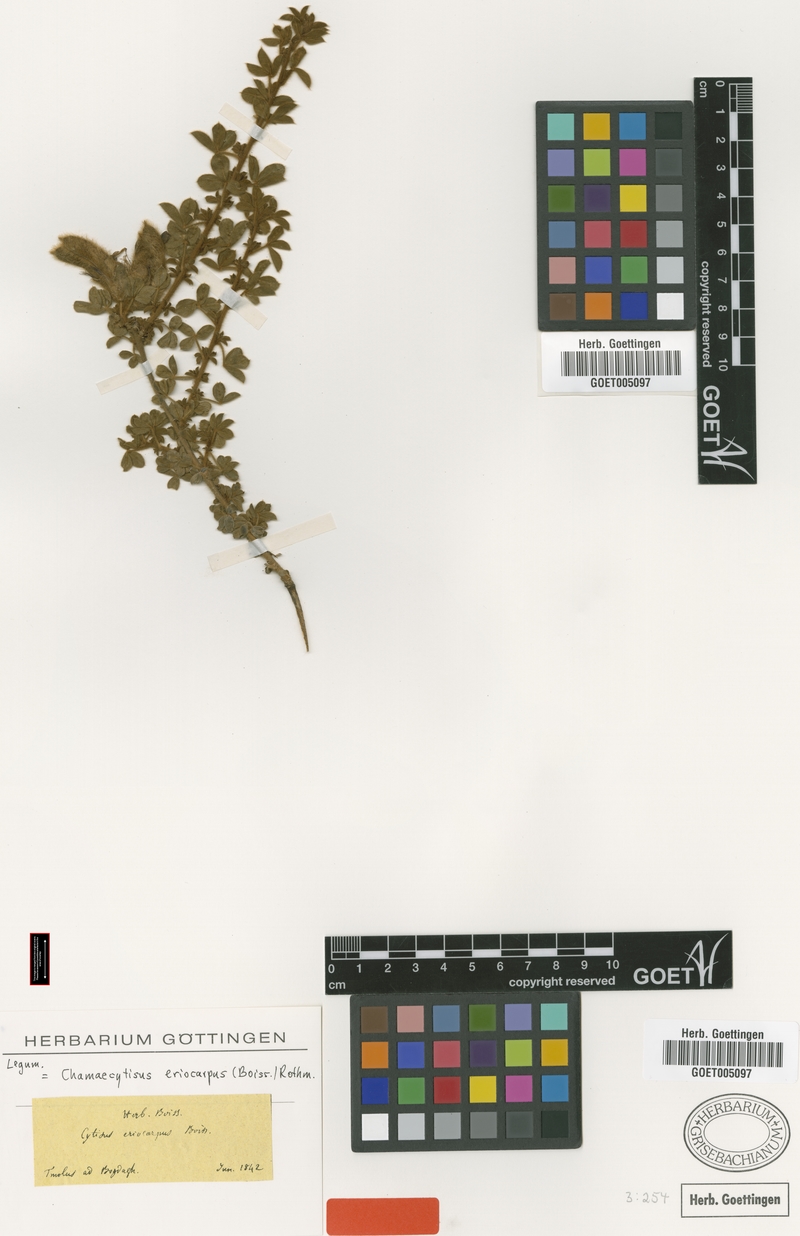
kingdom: Plantae
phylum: Tracheophyta
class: Magnoliopsida
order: Fabales
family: Fabaceae
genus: Chamaecytisus
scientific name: Chamaecytisus eriocarpus
